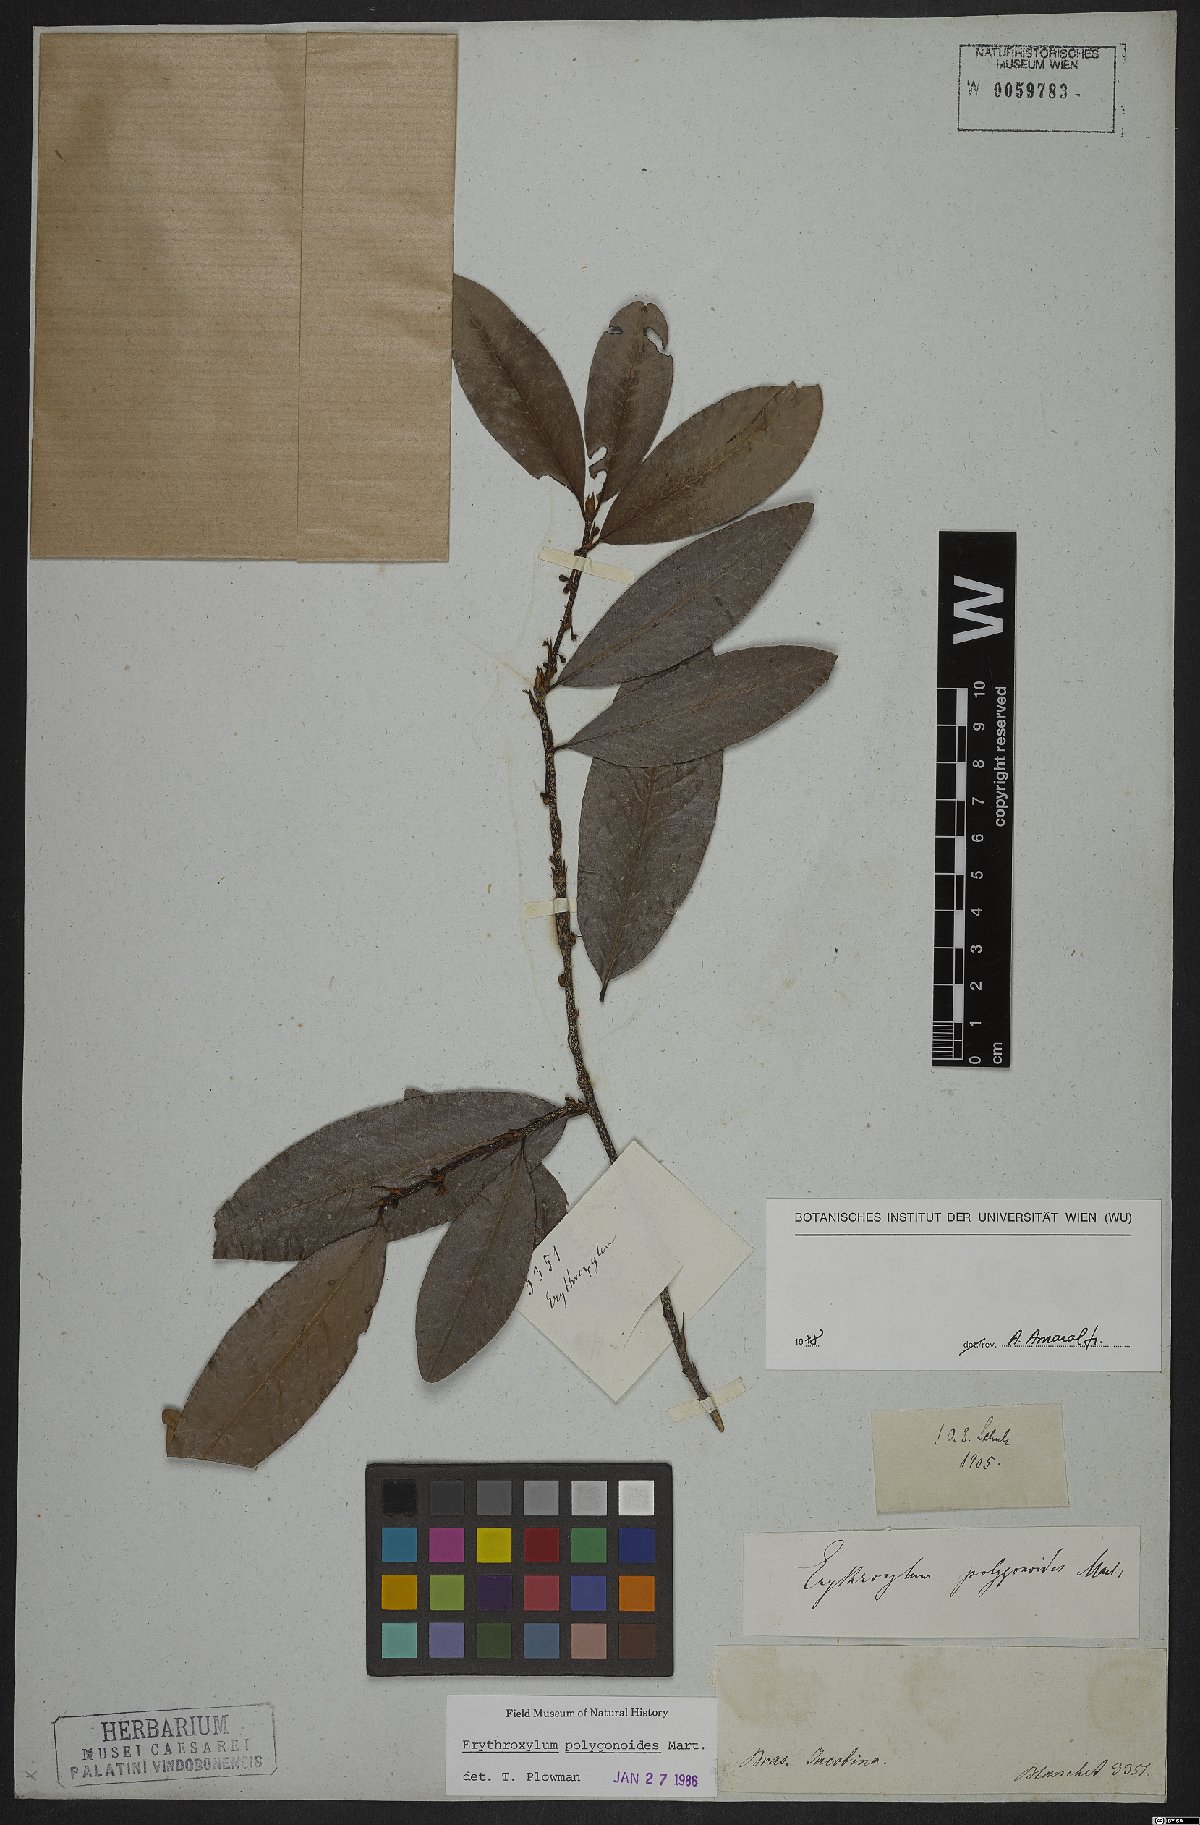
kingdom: Plantae
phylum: Tracheophyta
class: Magnoliopsida
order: Malpighiales
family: Erythroxylaceae
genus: Erythroxylum
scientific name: Erythroxylum polygonoides
